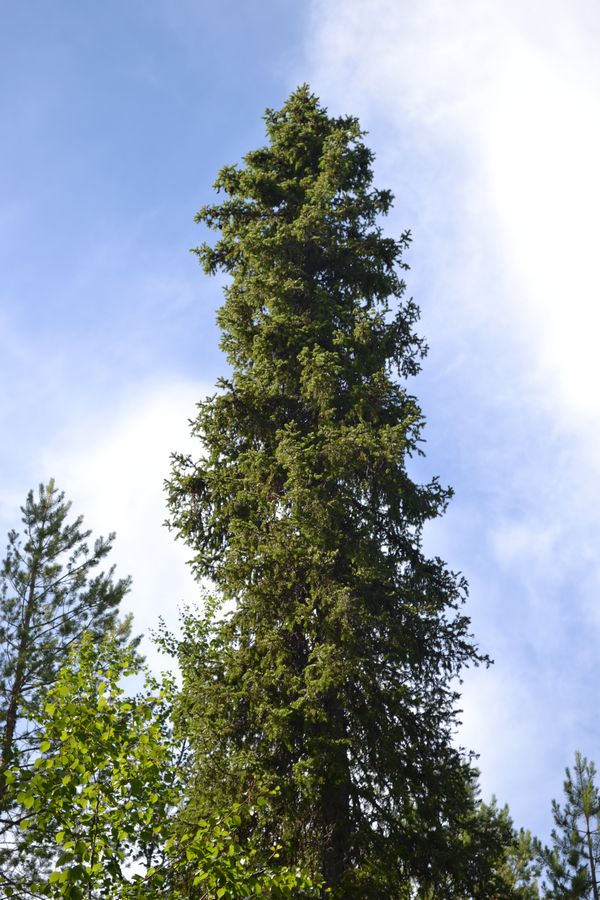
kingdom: Plantae
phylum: Tracheophyta
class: Pinopsida
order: Pinales
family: Pinaceae
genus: Picea
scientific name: Picea
